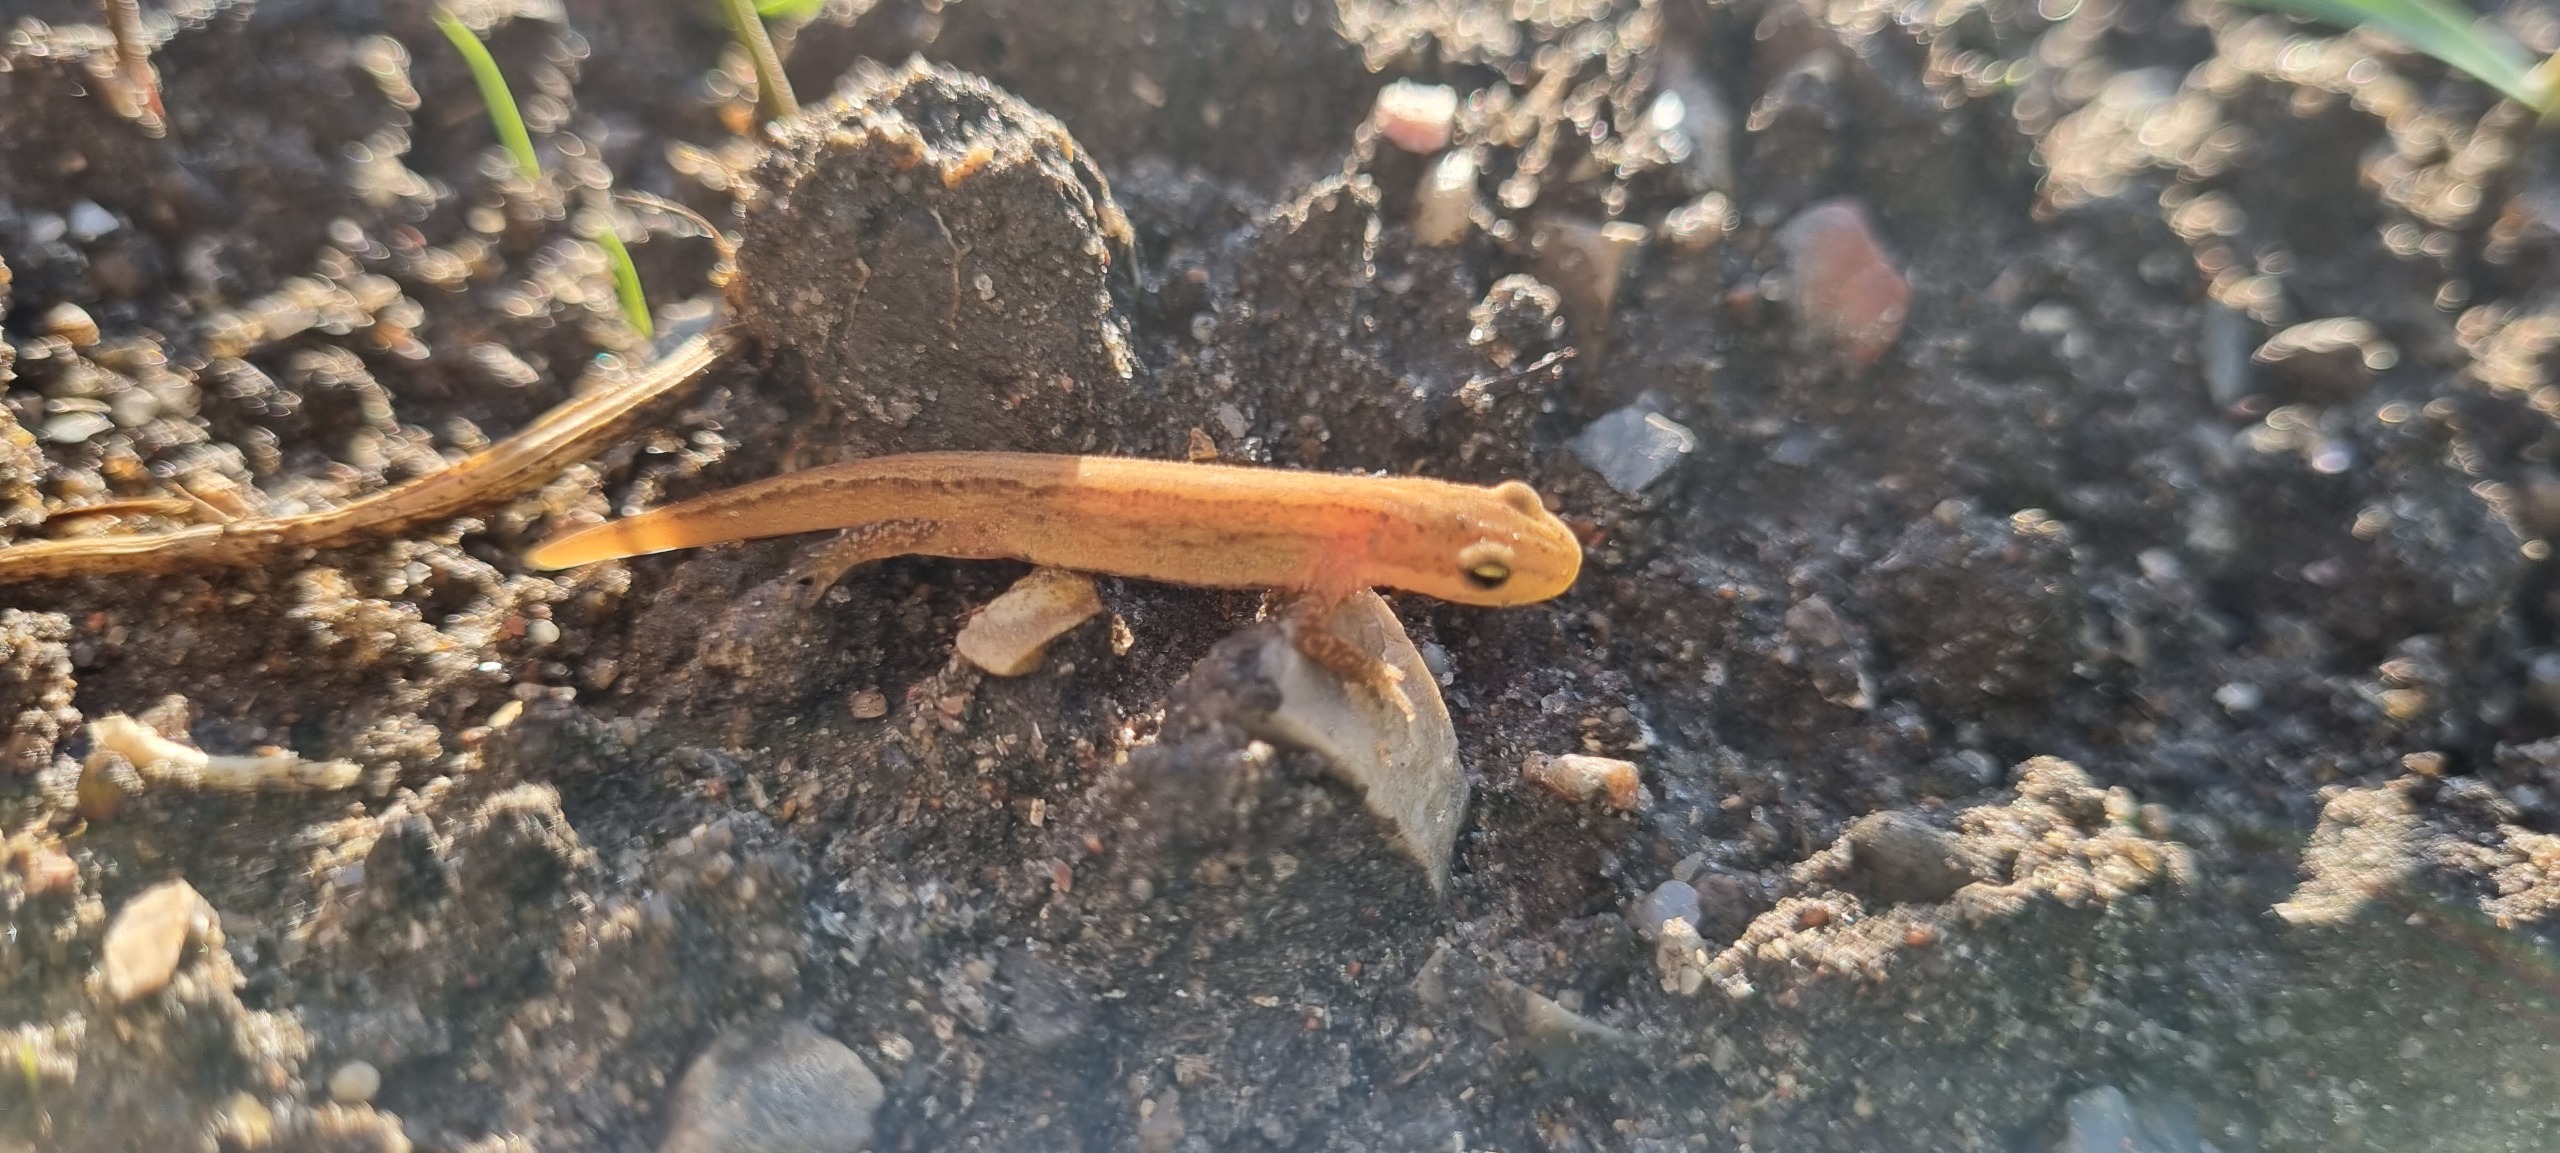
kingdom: Animalia
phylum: Chordata
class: Amphibia
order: Caudata
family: Salamandridae
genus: Lissotriton
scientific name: Lissotriton vulgaris
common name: Lille vandsalamander
